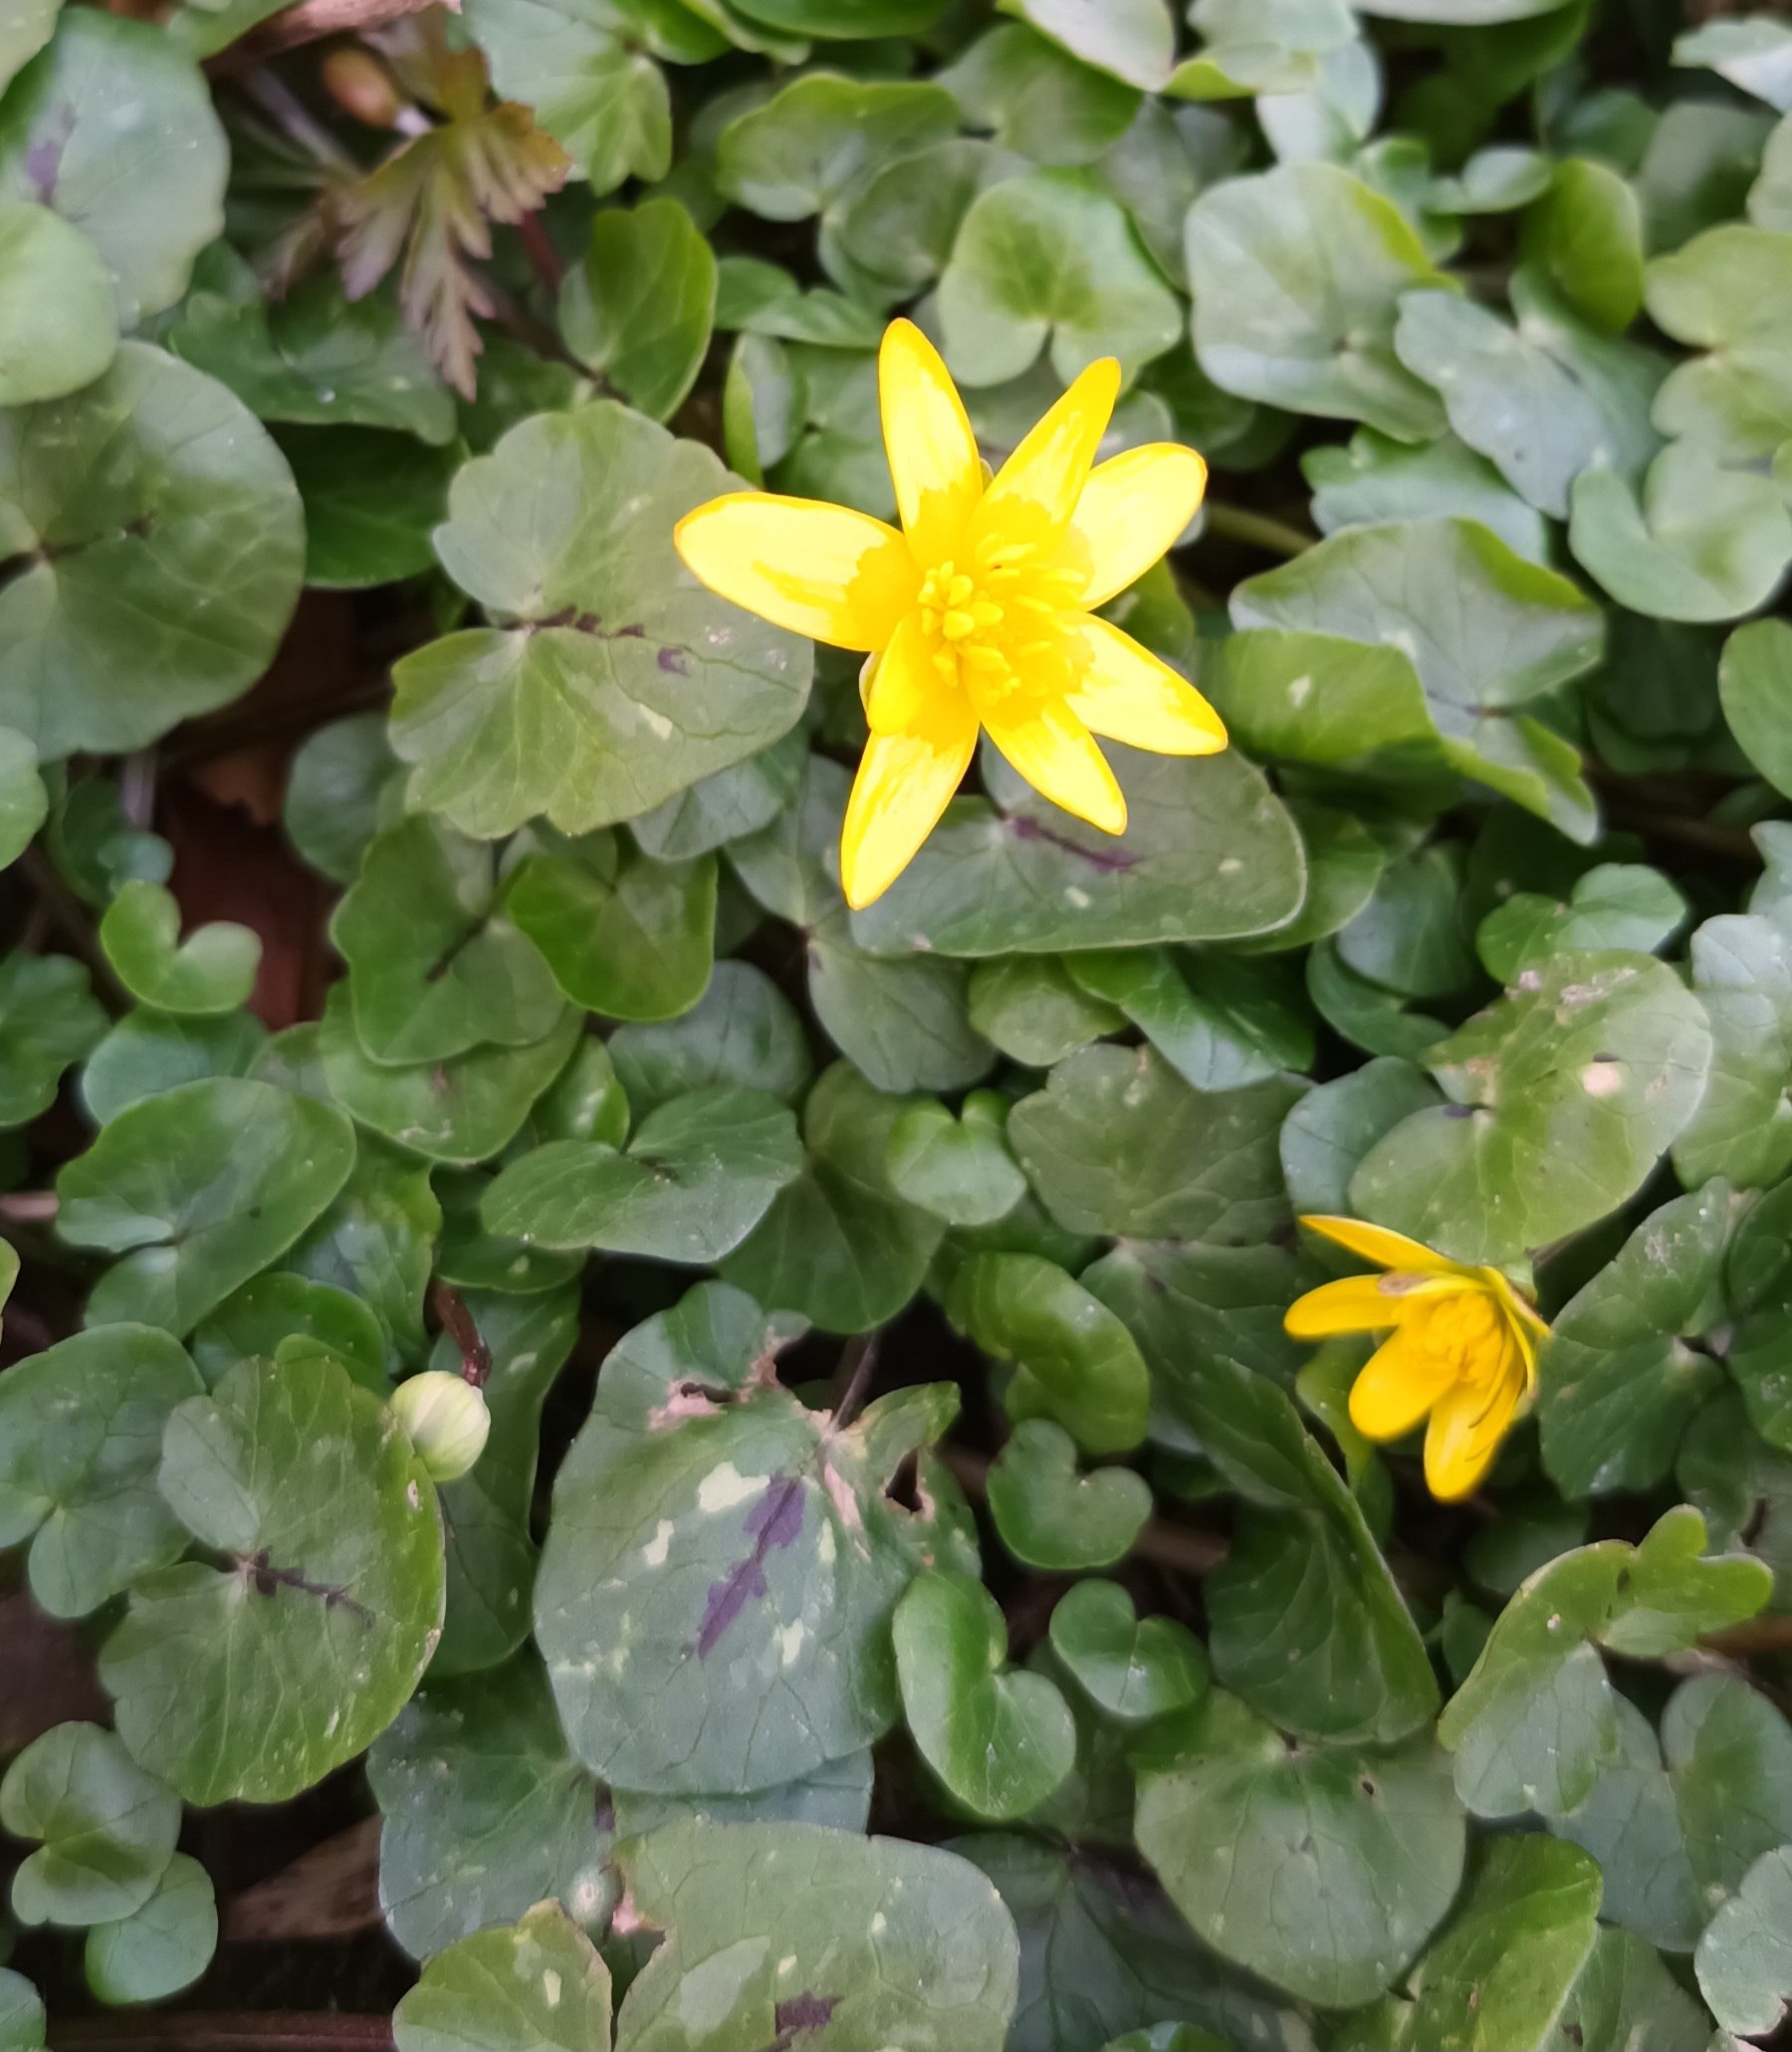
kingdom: Plantae
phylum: Tracheophyta
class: Magnoliopsida
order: Ranunculales
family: Ranunculaceae
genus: Ficaria
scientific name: Ficaria verna
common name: Vorterod
